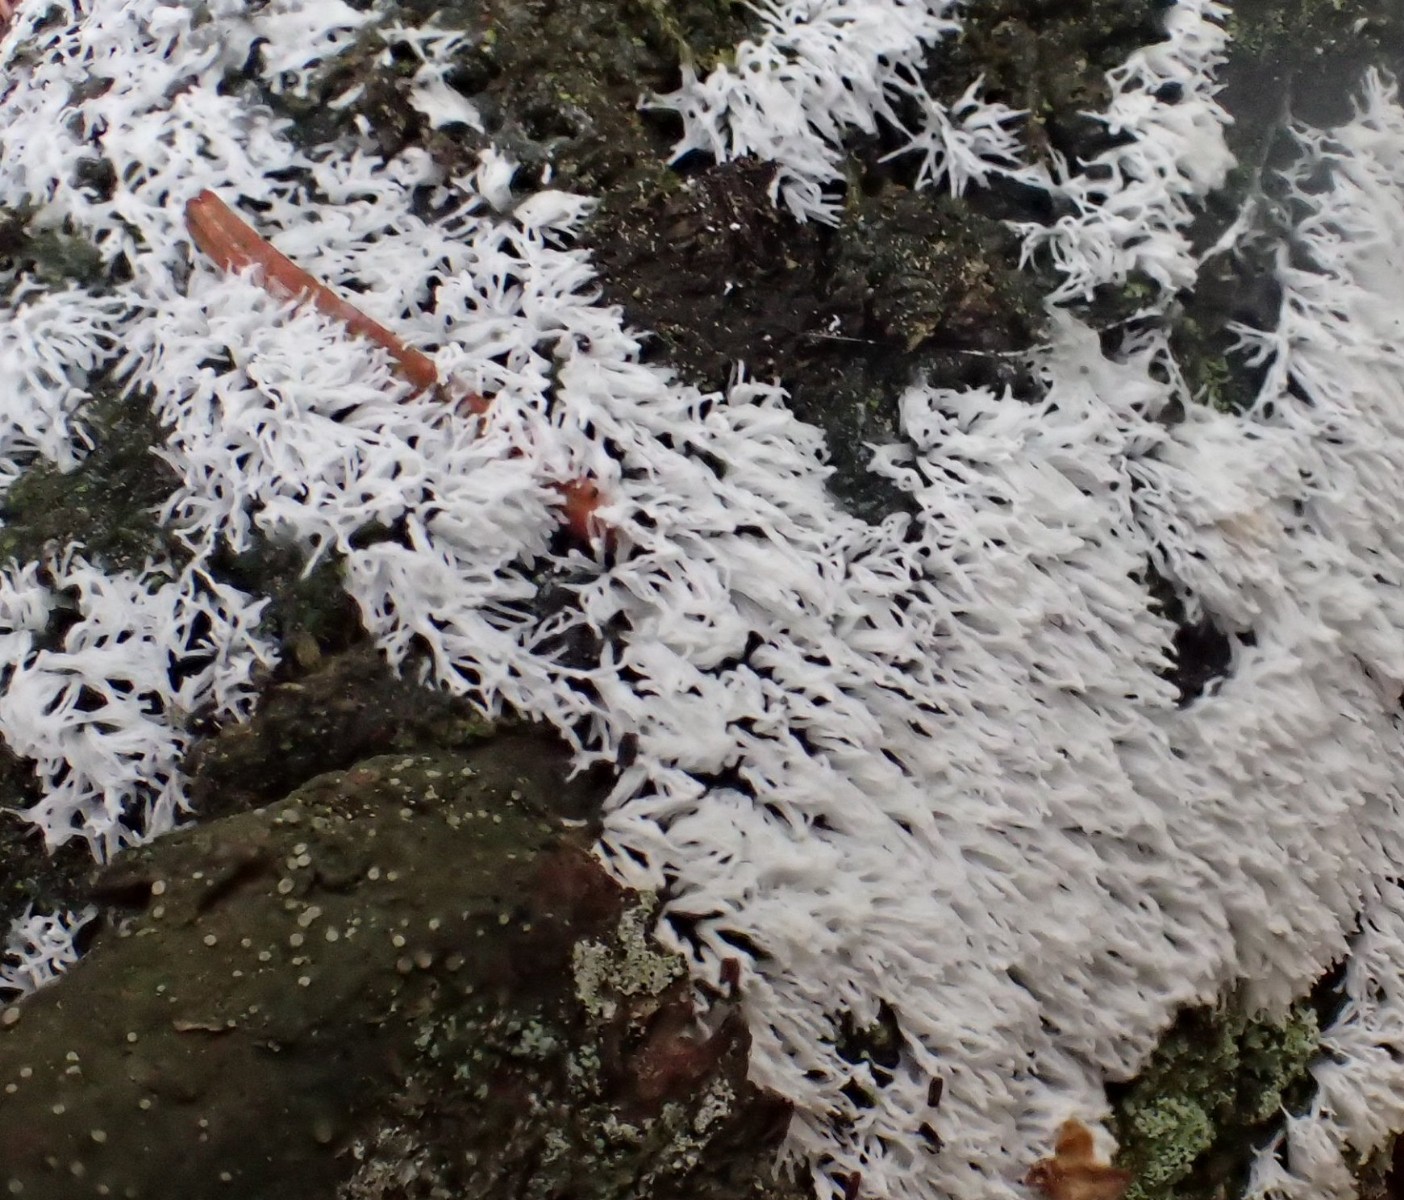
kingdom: Protozoa
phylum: Mycetozoa
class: Protosteliomycetes
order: Ceratiomyxales
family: Ceratiomyxaceae
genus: Ceratiomyxa
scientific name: Ceratiomyxa fruticulosa
